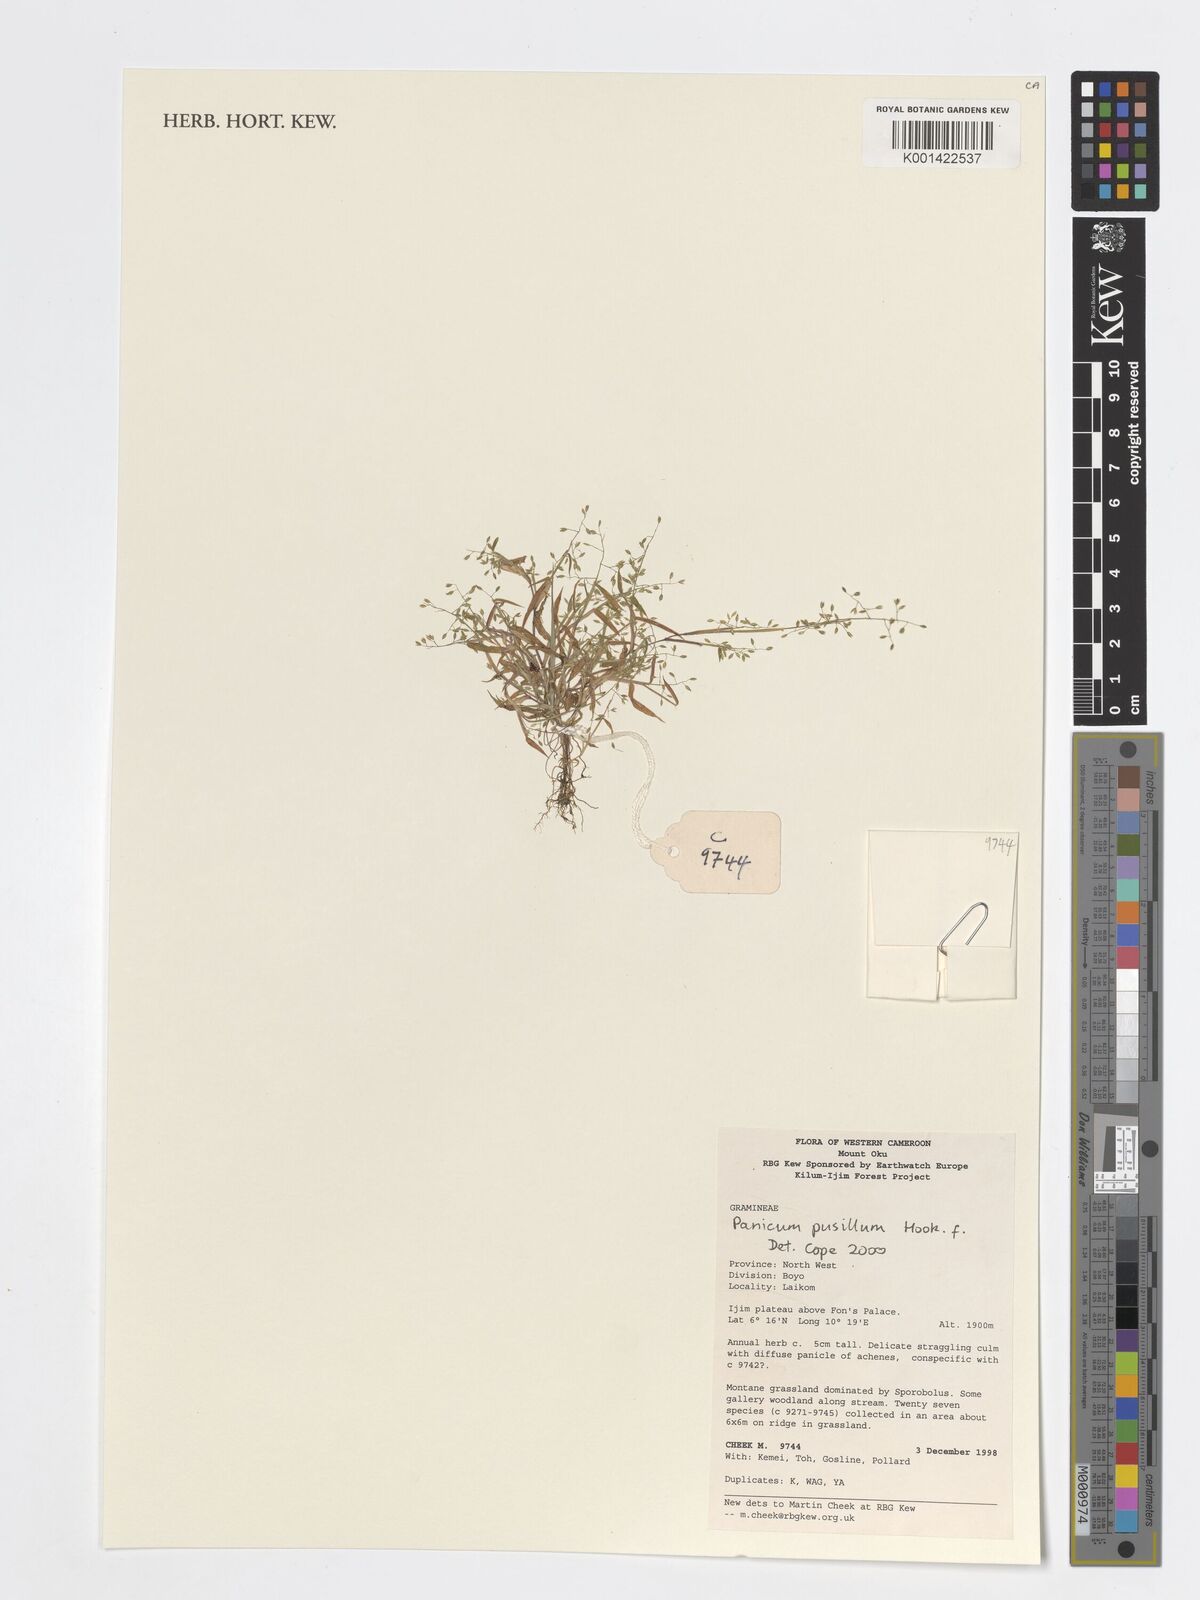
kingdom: Plantae
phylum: Tracheophyta
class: Liliopsida
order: Poales
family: Poaceae
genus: Panicum
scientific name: Panicum pusillum
